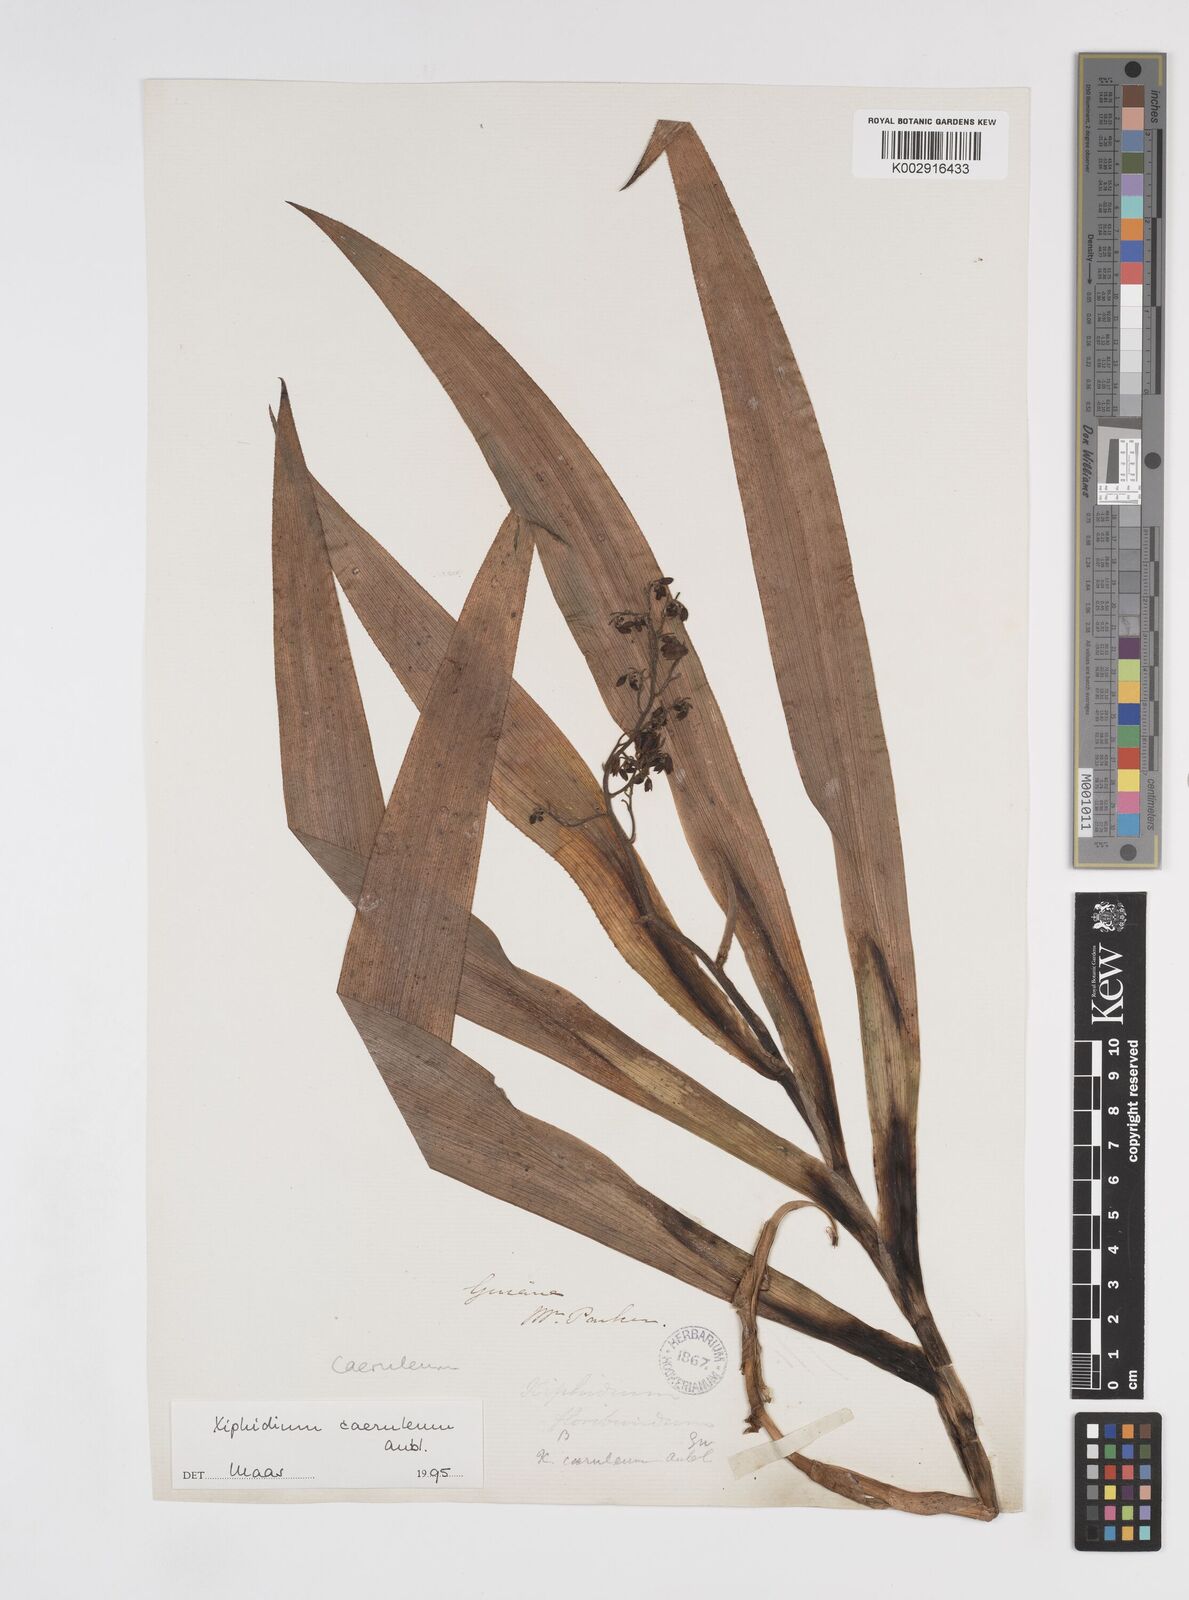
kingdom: Plantae
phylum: Tracheophyta
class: Liliopsida
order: Commelinales
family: Haemodoraceae
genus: Xiphidium
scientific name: Xiphidium caeruleum
